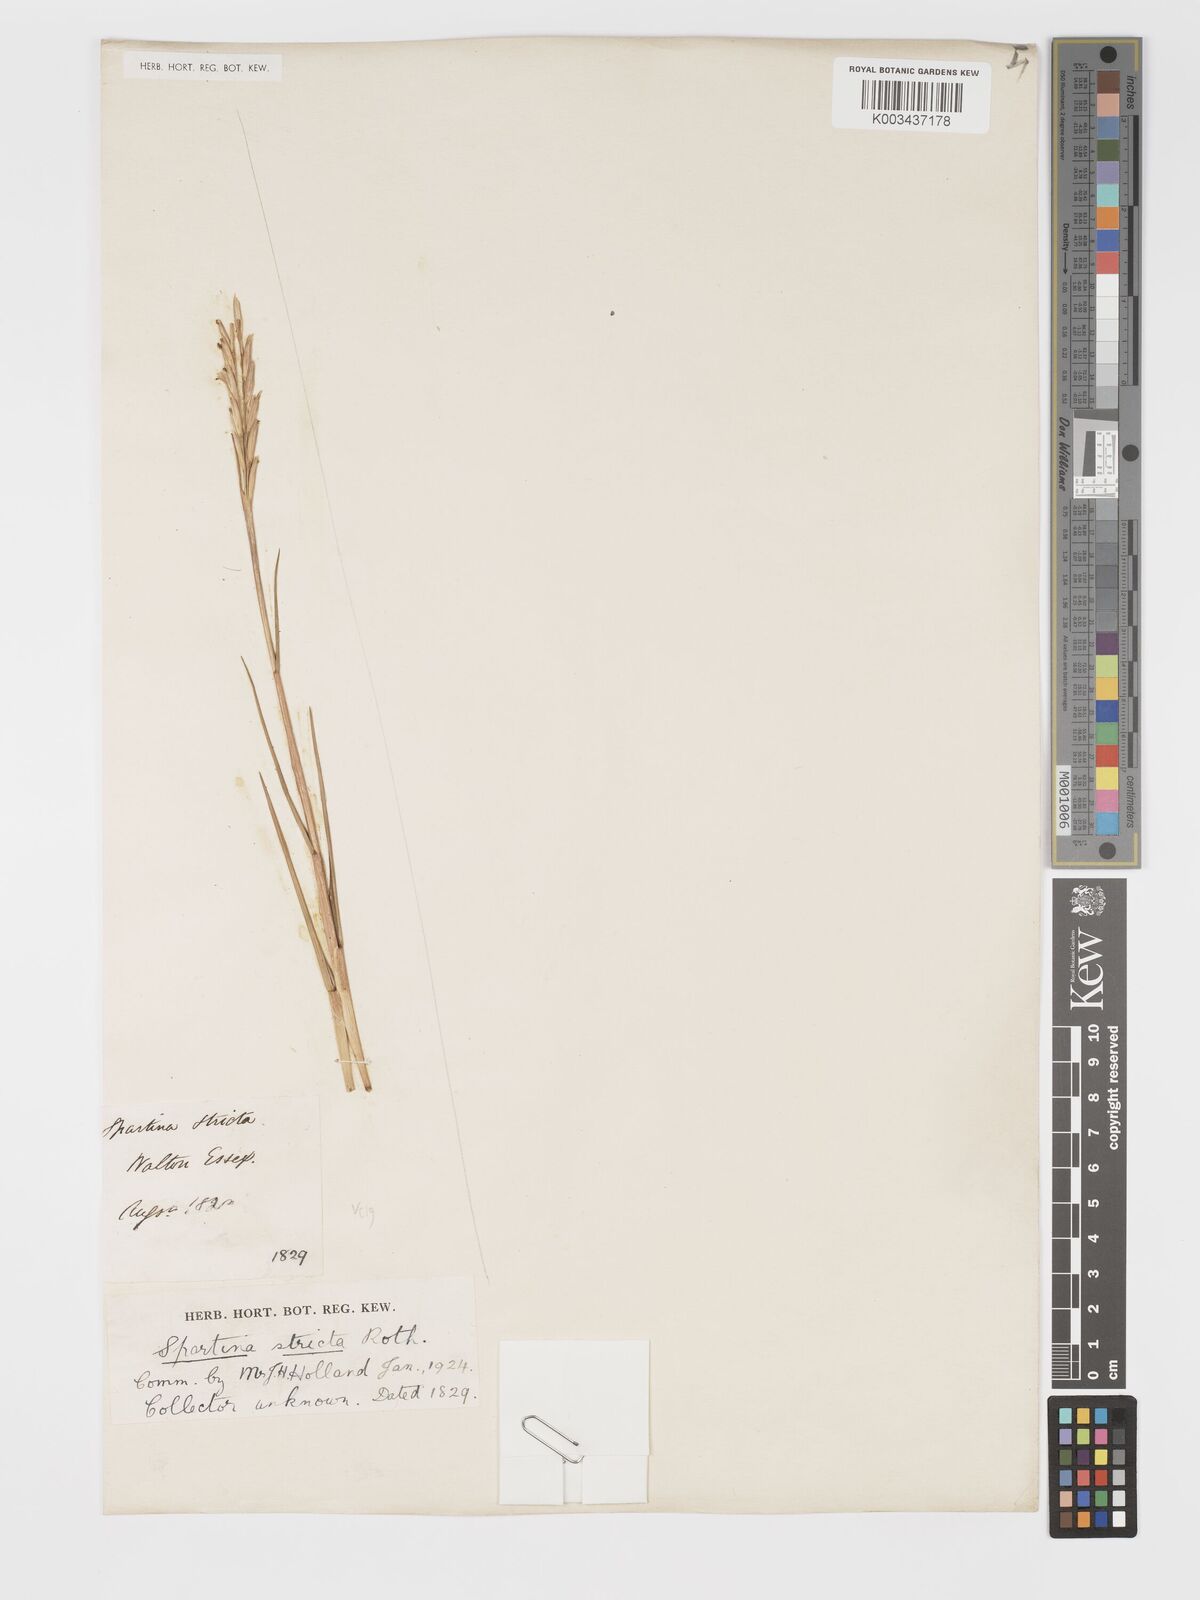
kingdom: Plantae
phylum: Tracheophyta
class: Liliopsida
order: Poales
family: Poaceae
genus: Sporobolus
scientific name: Sporobolus maritimus
